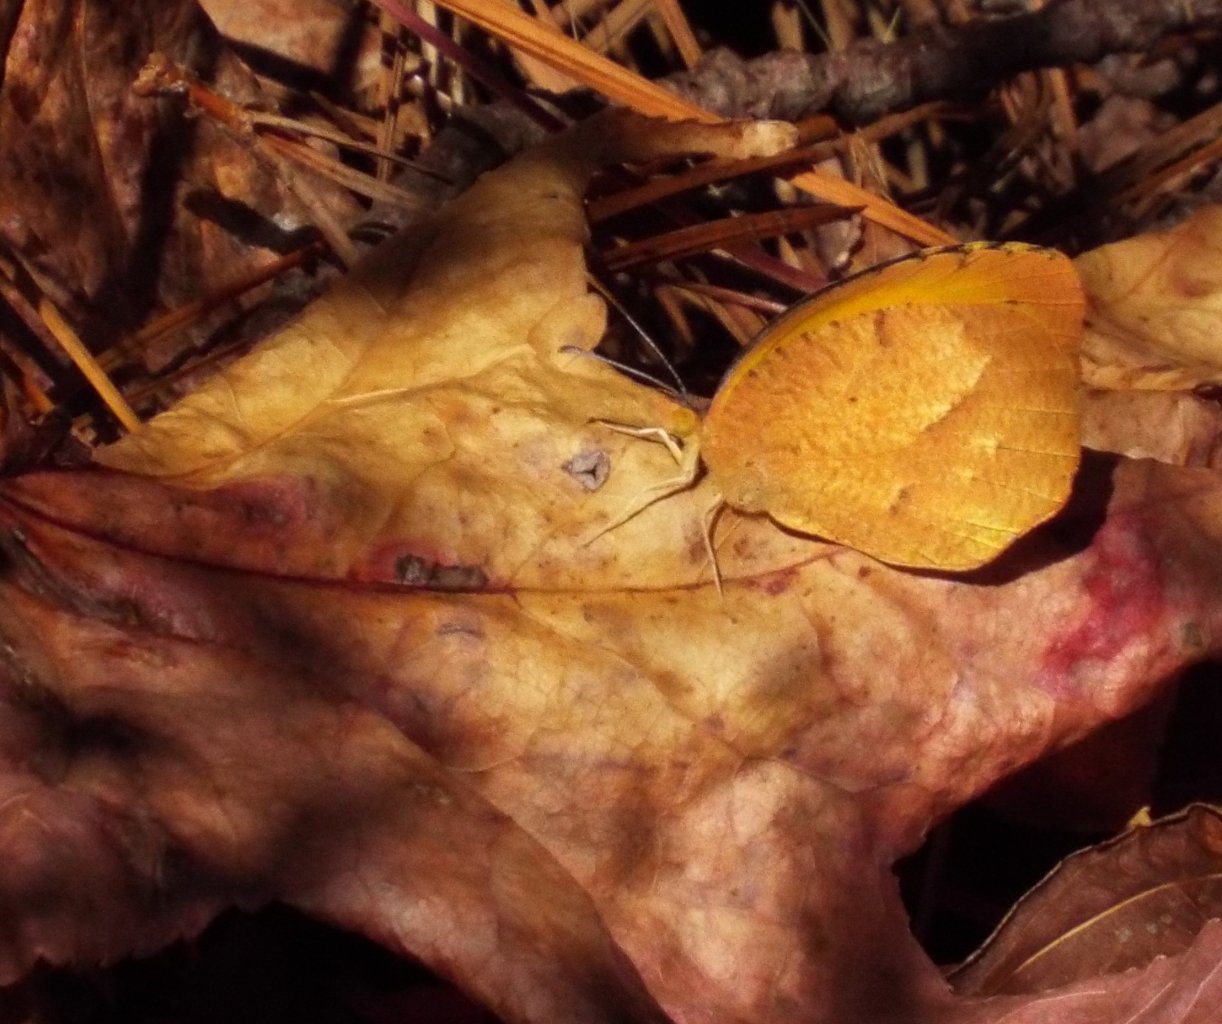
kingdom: Animalia
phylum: Arthropoda
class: Insecta
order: Lepidoptera
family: Pieridae
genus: Abaeis
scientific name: Abaeis nicippe
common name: Sleepy Orange
